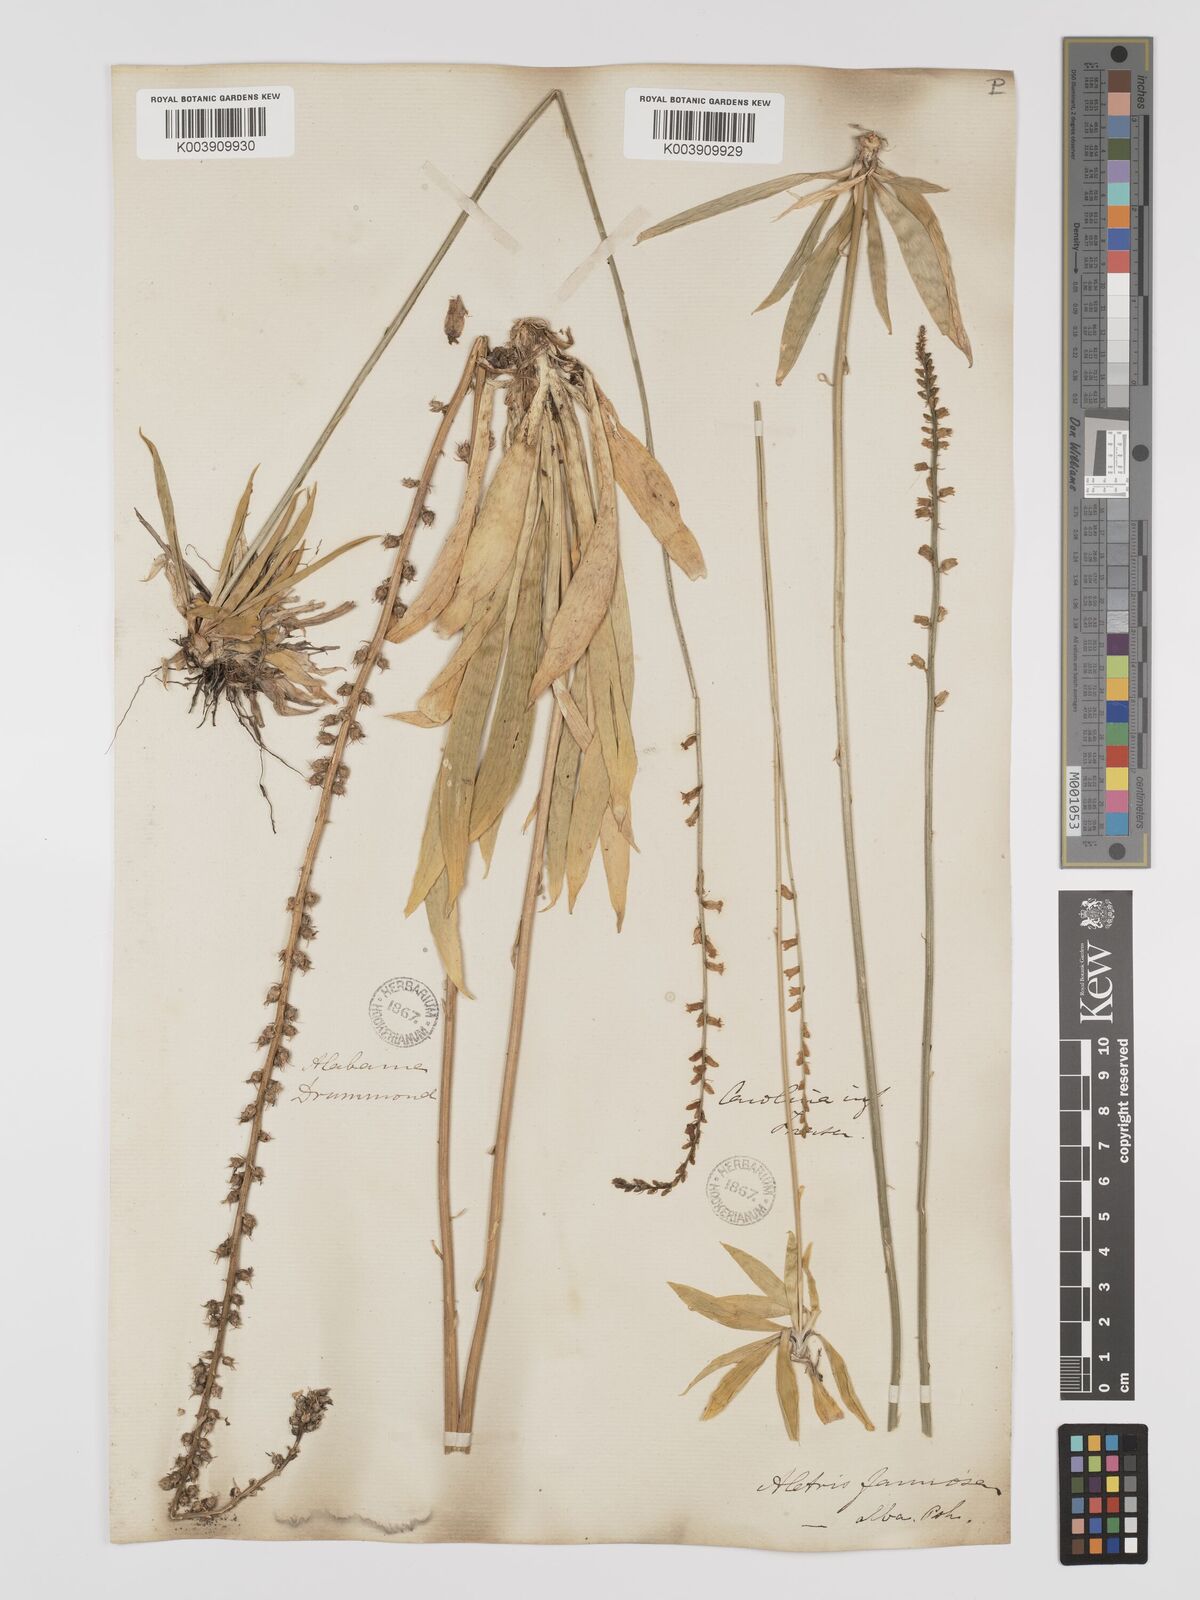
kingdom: Plantae
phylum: Tracheophyta
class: Liliopsida
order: Dioscoreales
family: Nartheciaceae
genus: Aletris
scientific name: Aletris farinosa
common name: Colicroot
